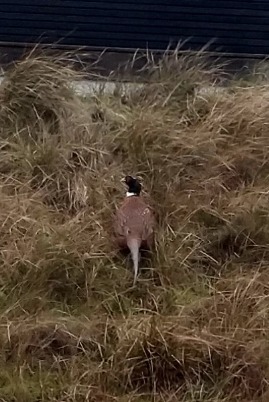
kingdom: Animalia
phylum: Chordata
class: Aves
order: Galliformes
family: Phasianidae
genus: Phasianus
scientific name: Phasianus colchicus
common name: Fasan
